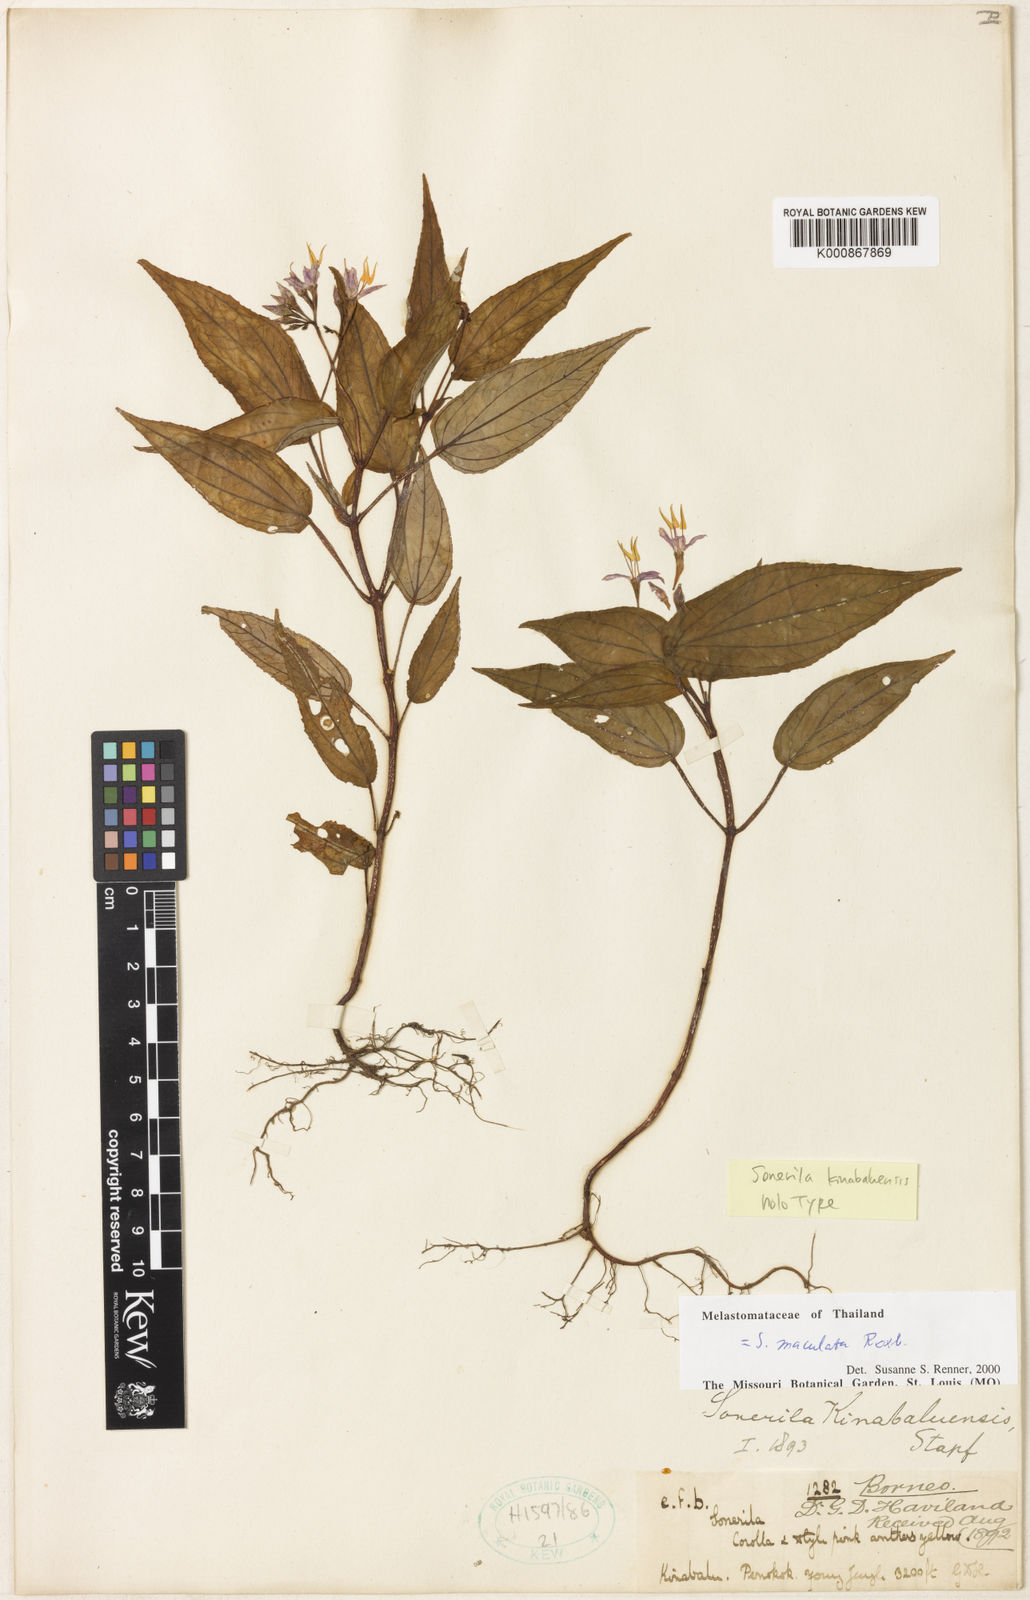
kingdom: Plantae
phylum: Tracheophyta
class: Magnoliopsida
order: Myrtales
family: Melastomataceae
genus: Sonerila
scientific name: Sonerila kinabaluensis
